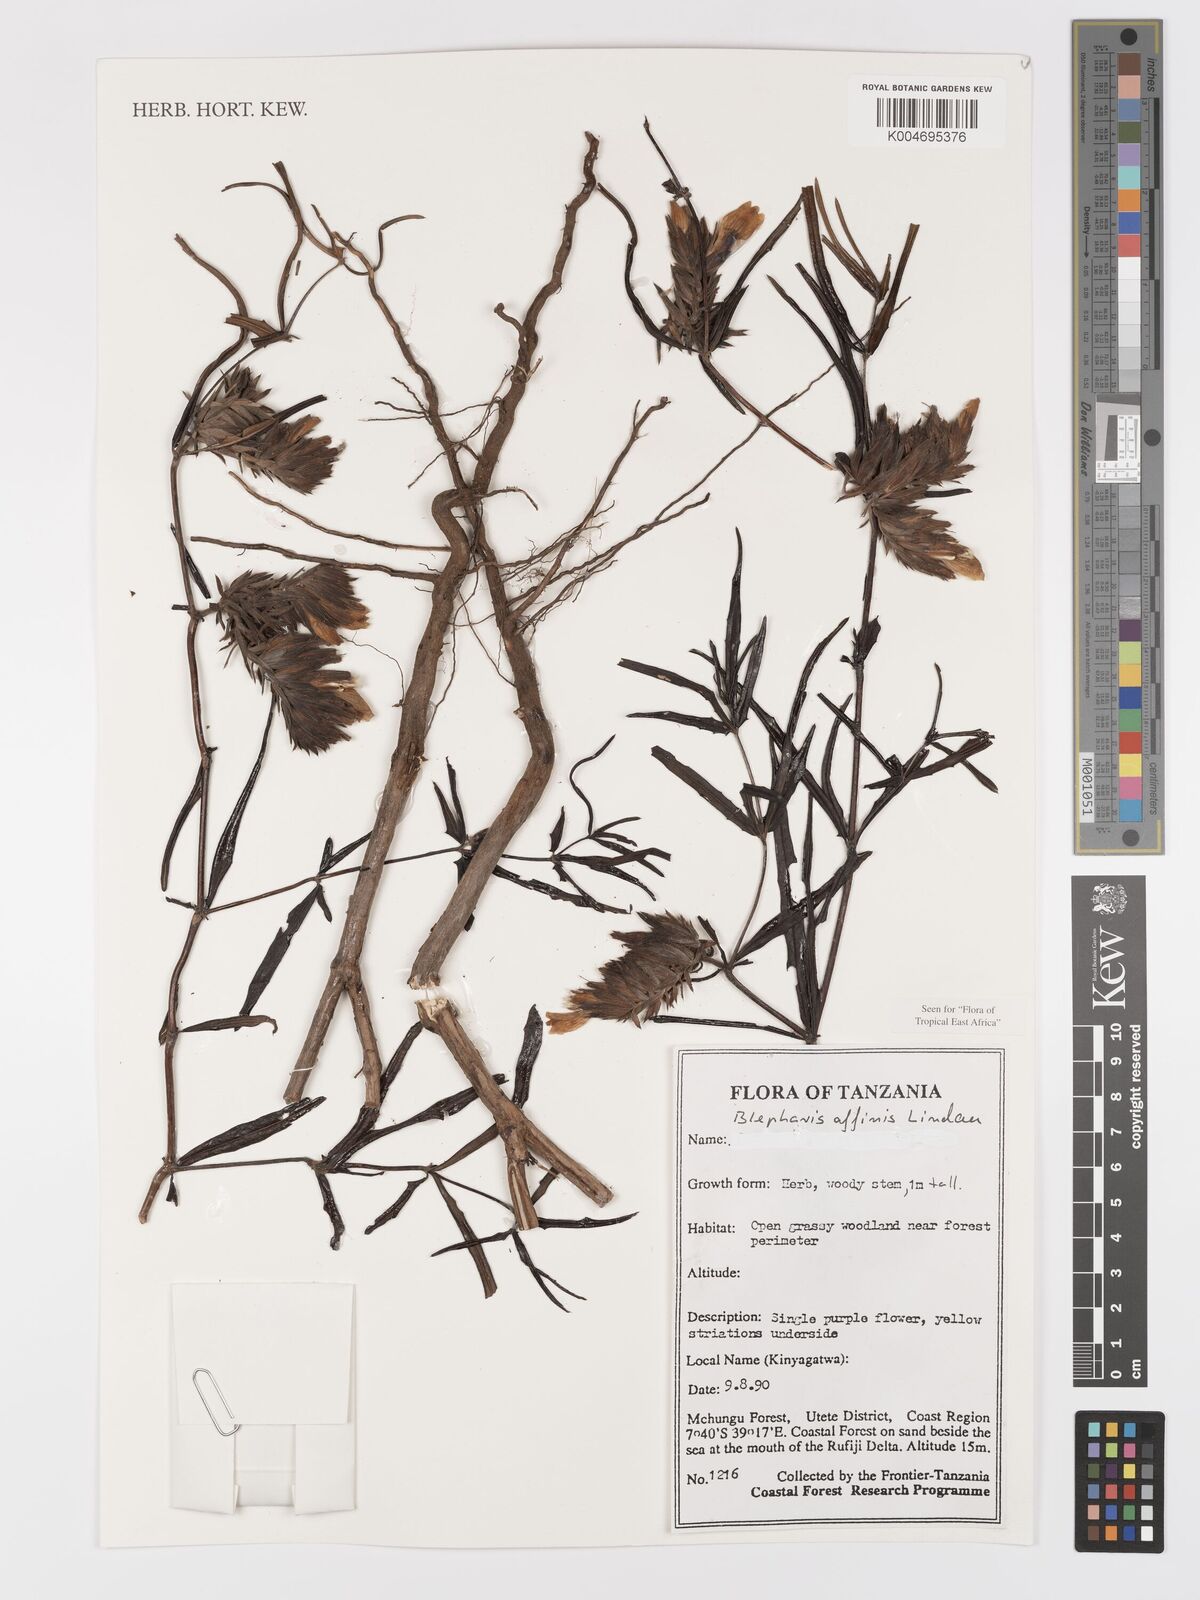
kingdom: Plantae
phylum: Tracheophyta
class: Magnoliopsida
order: Lamiales
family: Acanthaceae
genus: Blepharis
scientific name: Blepharis affinis
